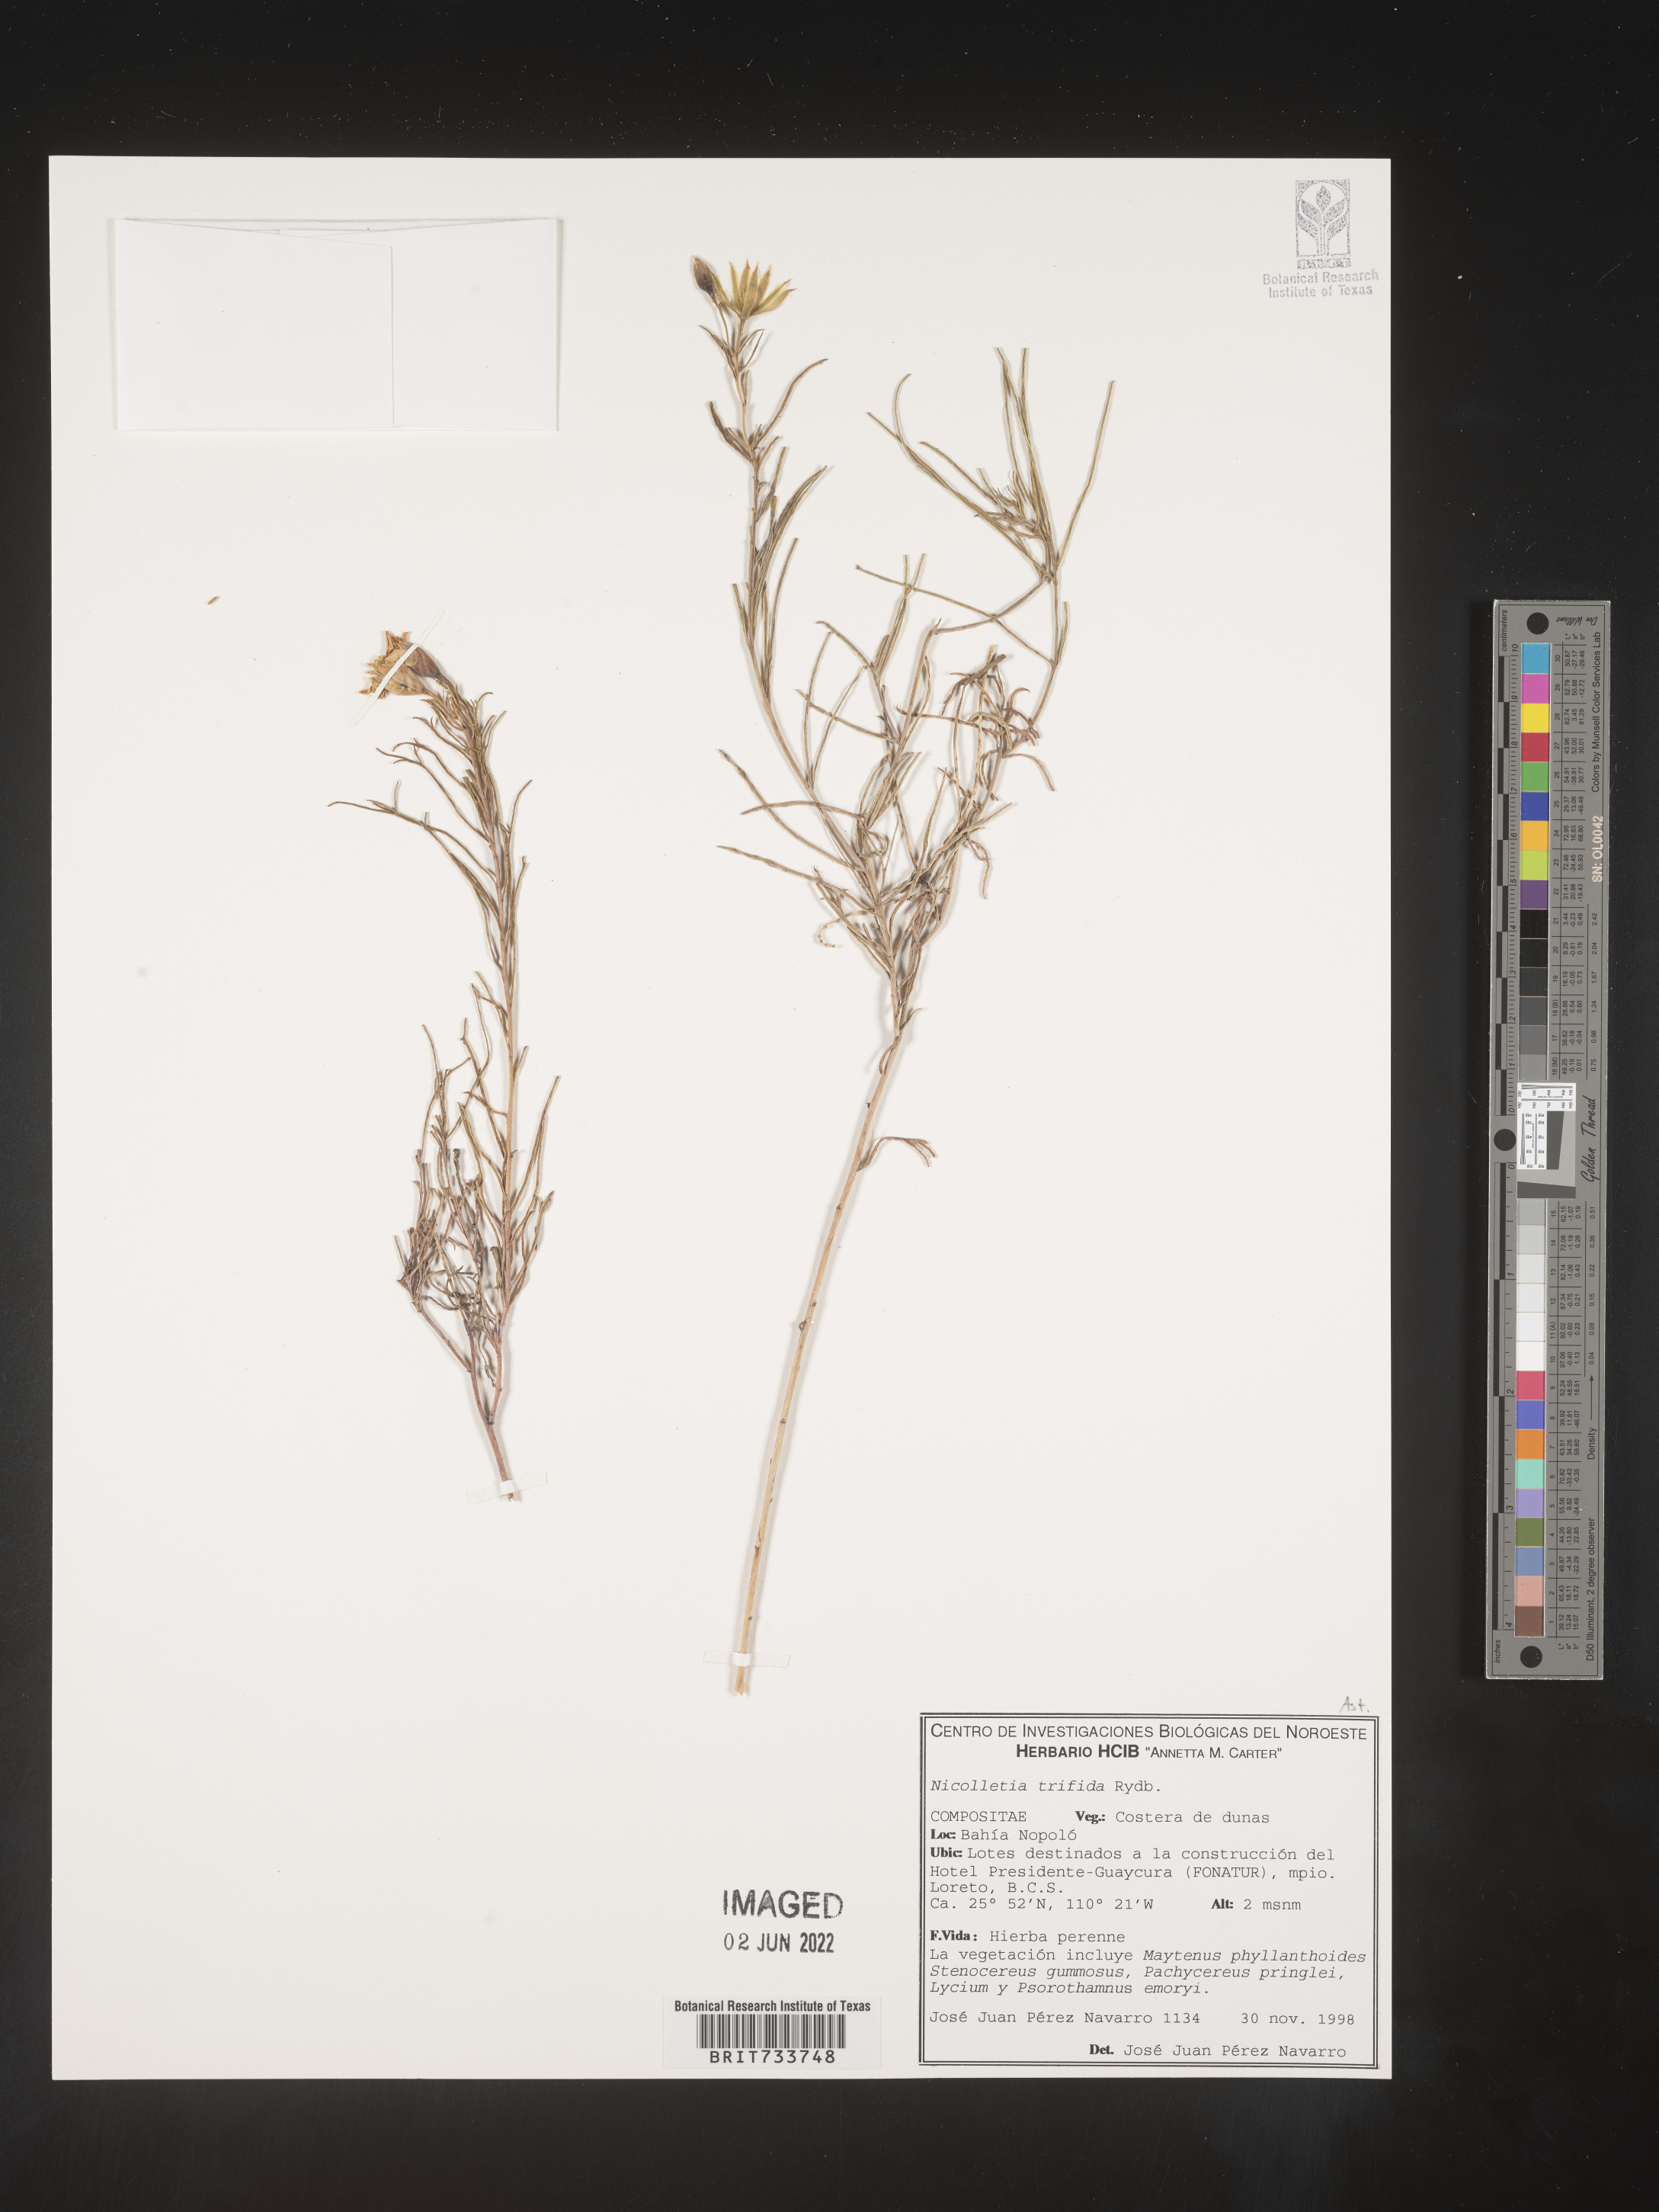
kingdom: Plantae
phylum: Tracheophyta
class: Magnoliopsida
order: Asterales
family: Asteraceae
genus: Nicolletia
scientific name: Nicolletia
